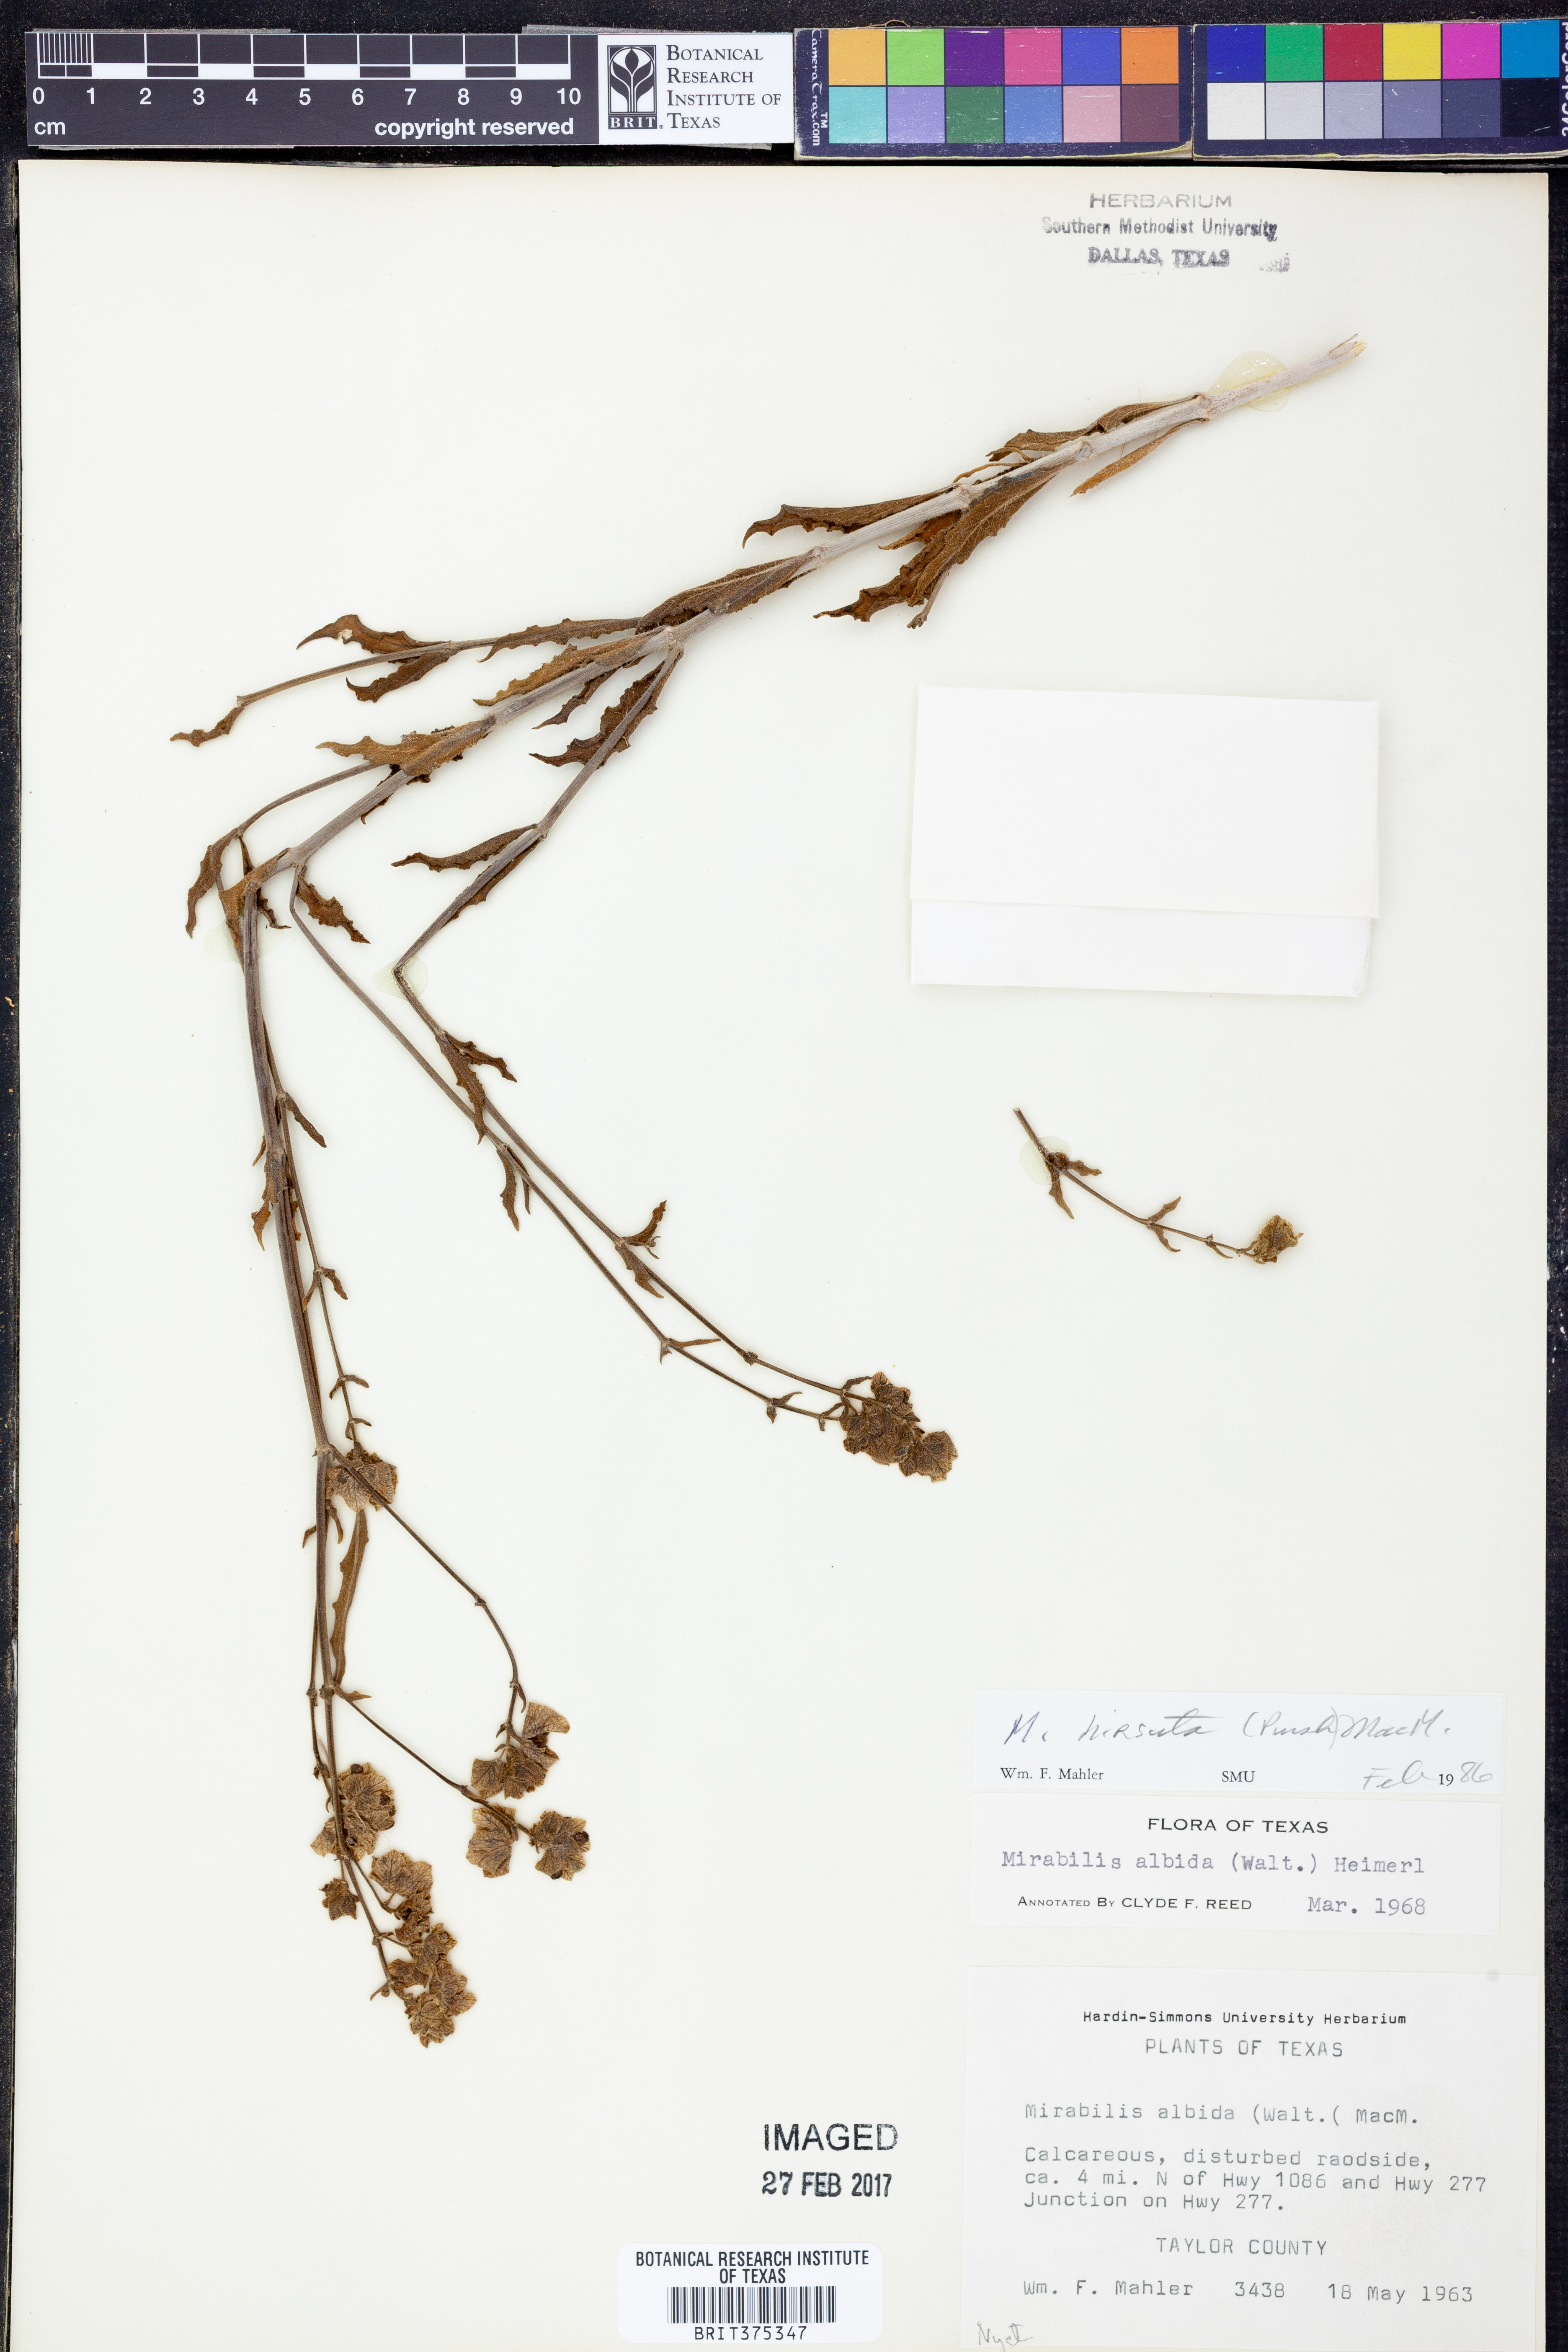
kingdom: Plantae
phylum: Tracheophyta
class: Magnoliopsida
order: Caryophyllales
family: Nyctaginaceae
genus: Mirabilis
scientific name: Mirabilis albida
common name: Hairy four-o'clock
